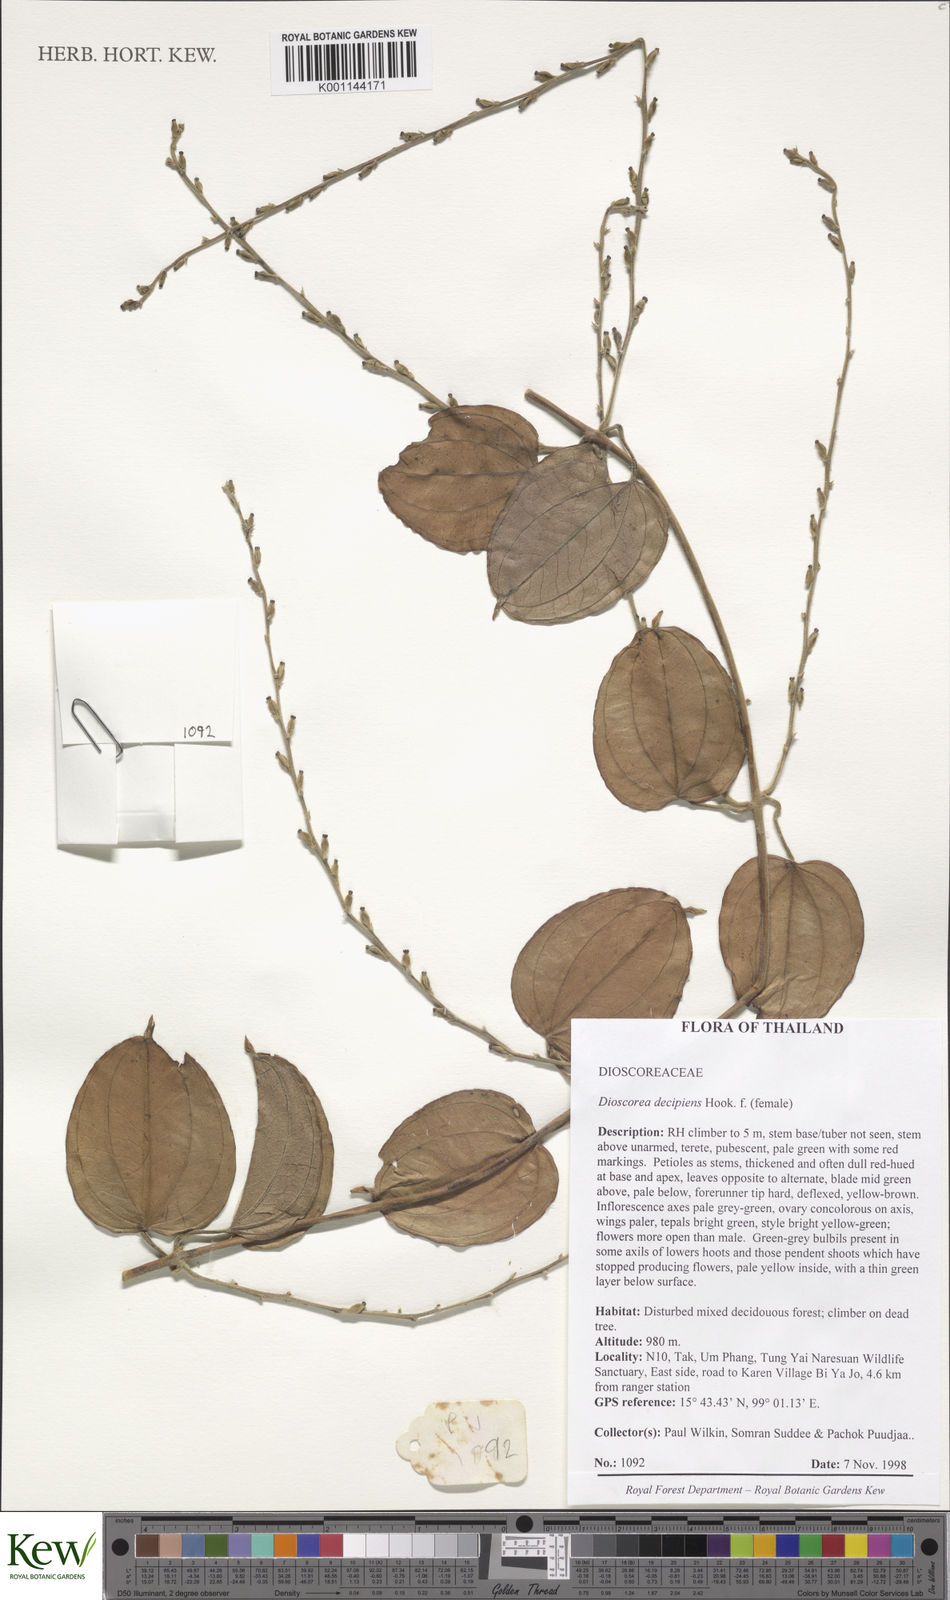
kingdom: Plantae
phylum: Tracheophyta
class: Liliopsida
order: Dioscoreales
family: Dioscoreaceae
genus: Dioscorea
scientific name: Dioscorea decipiens
